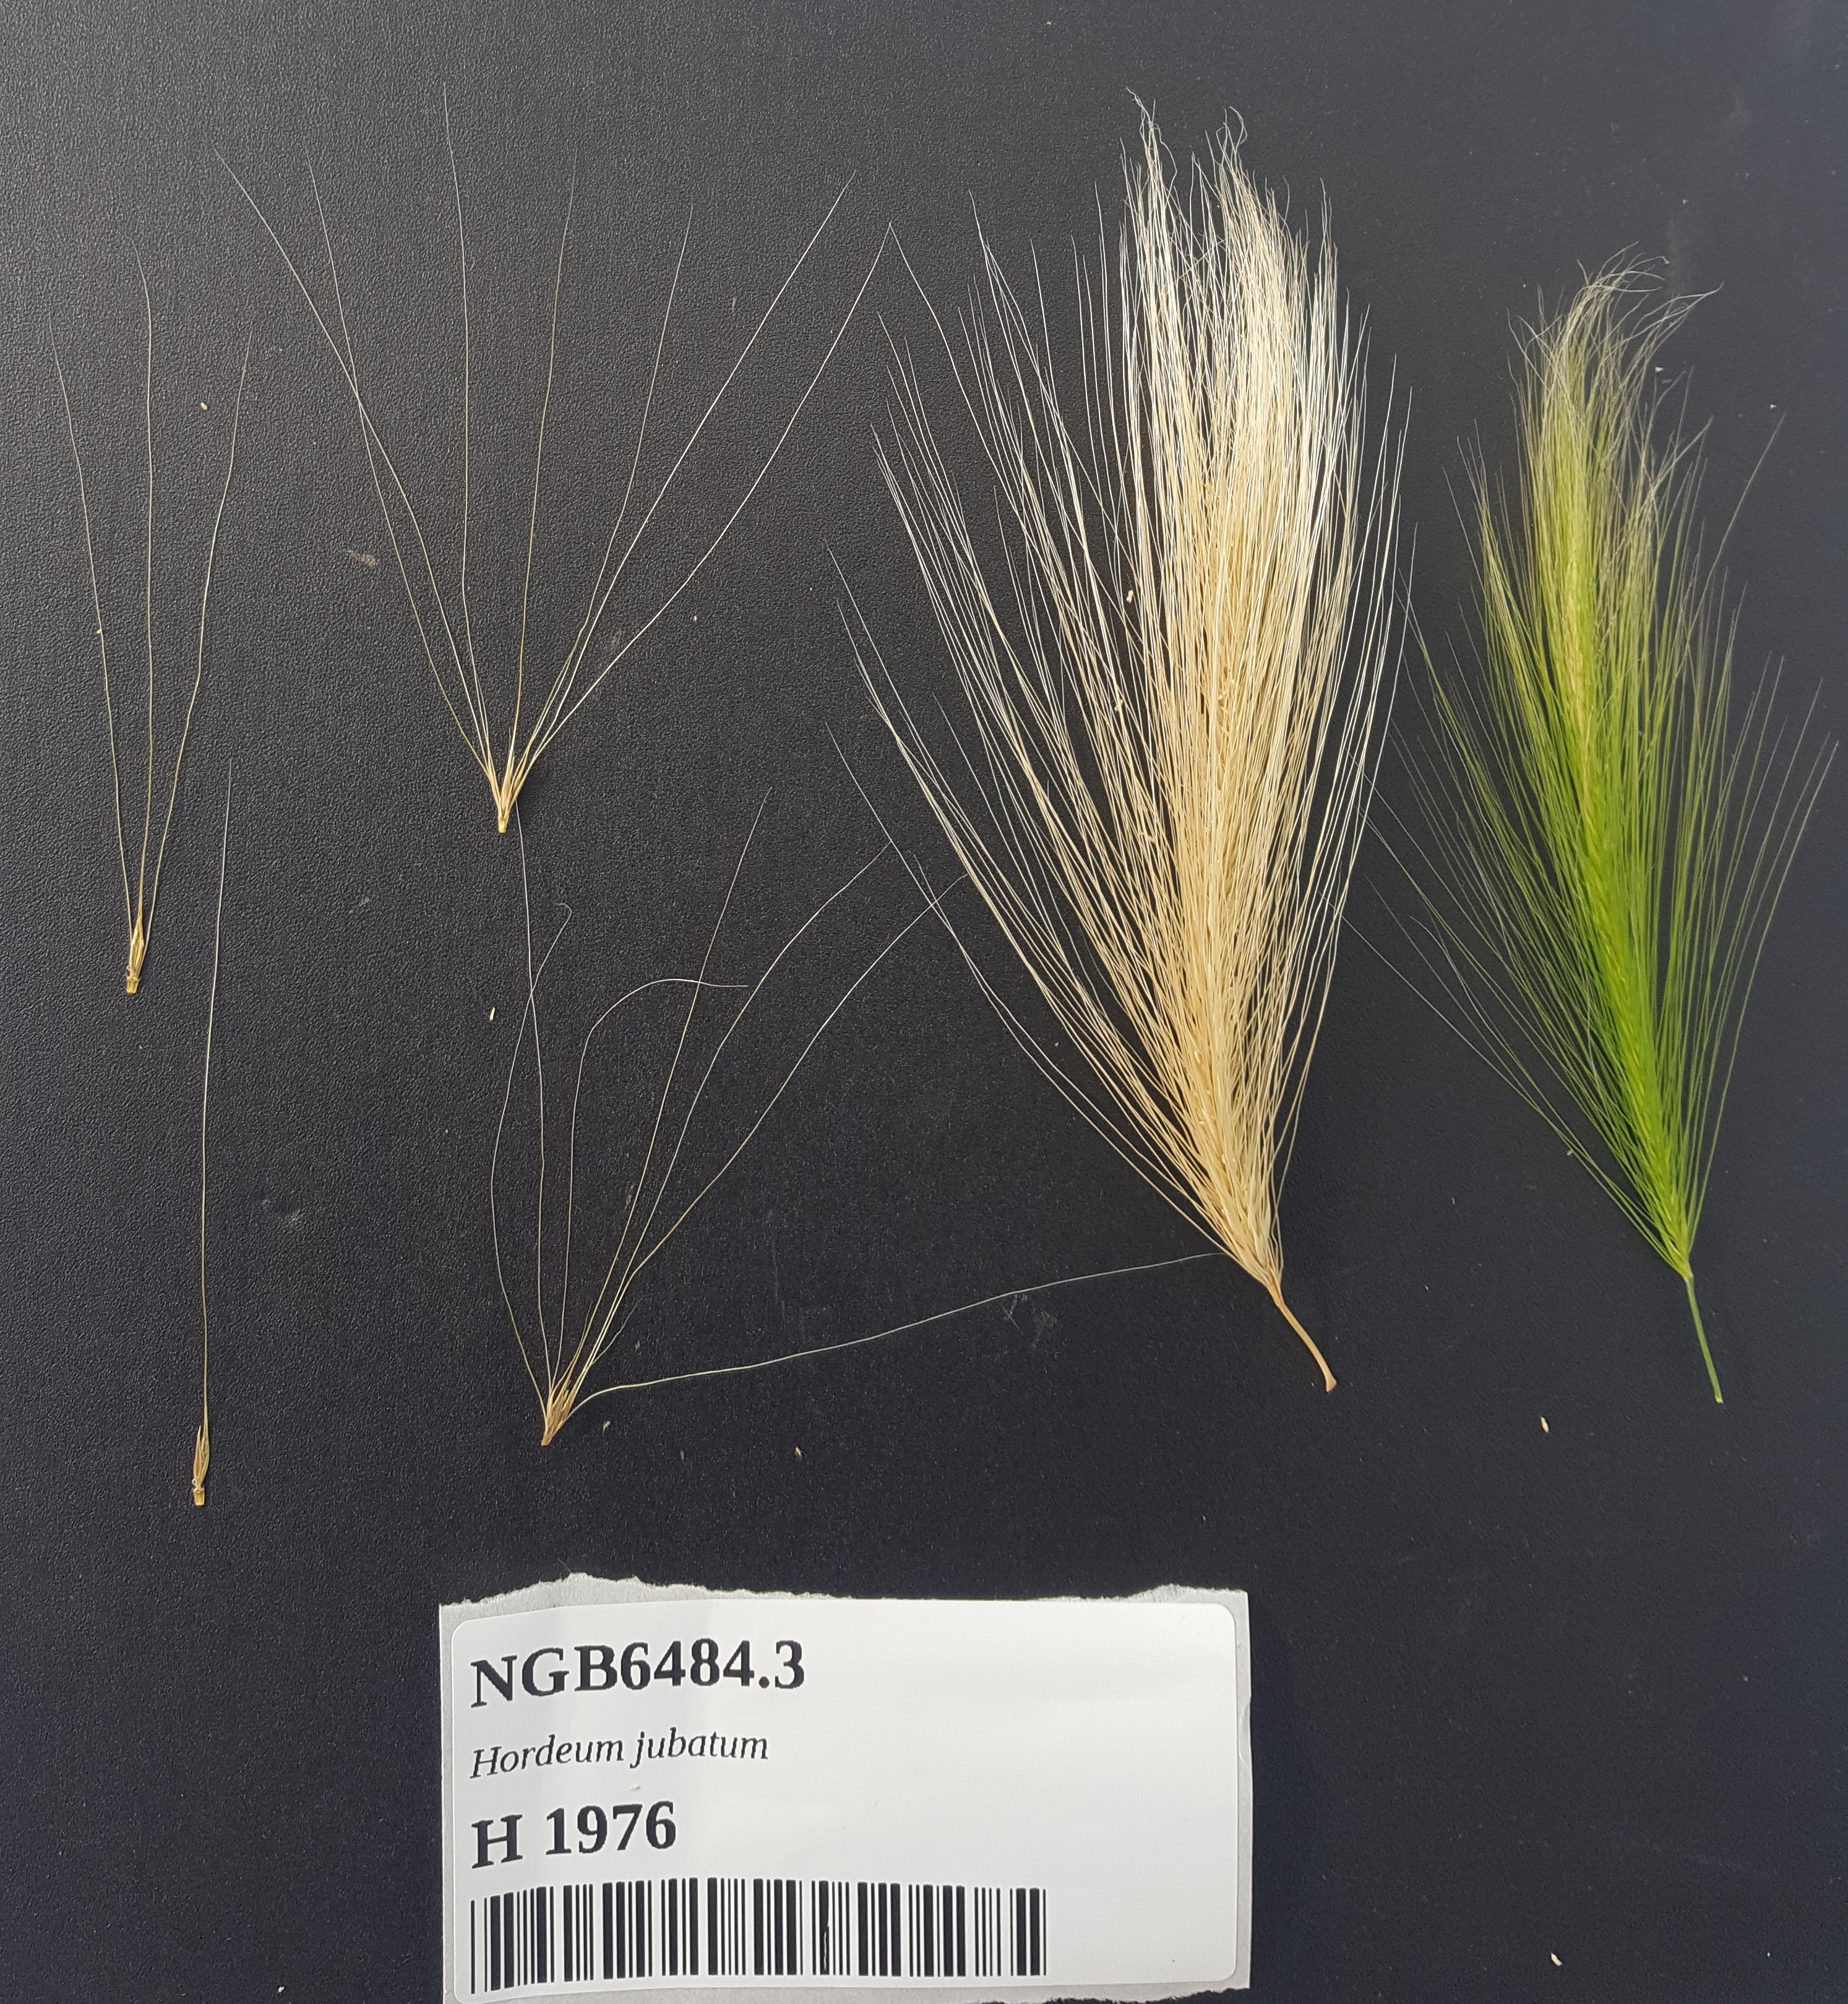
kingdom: Plantae
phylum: Tracheophyta
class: Liliopsida
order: Poales
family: Poaceae
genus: Hordeum
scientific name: Hordeum jubatum
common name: Foxtail barley
